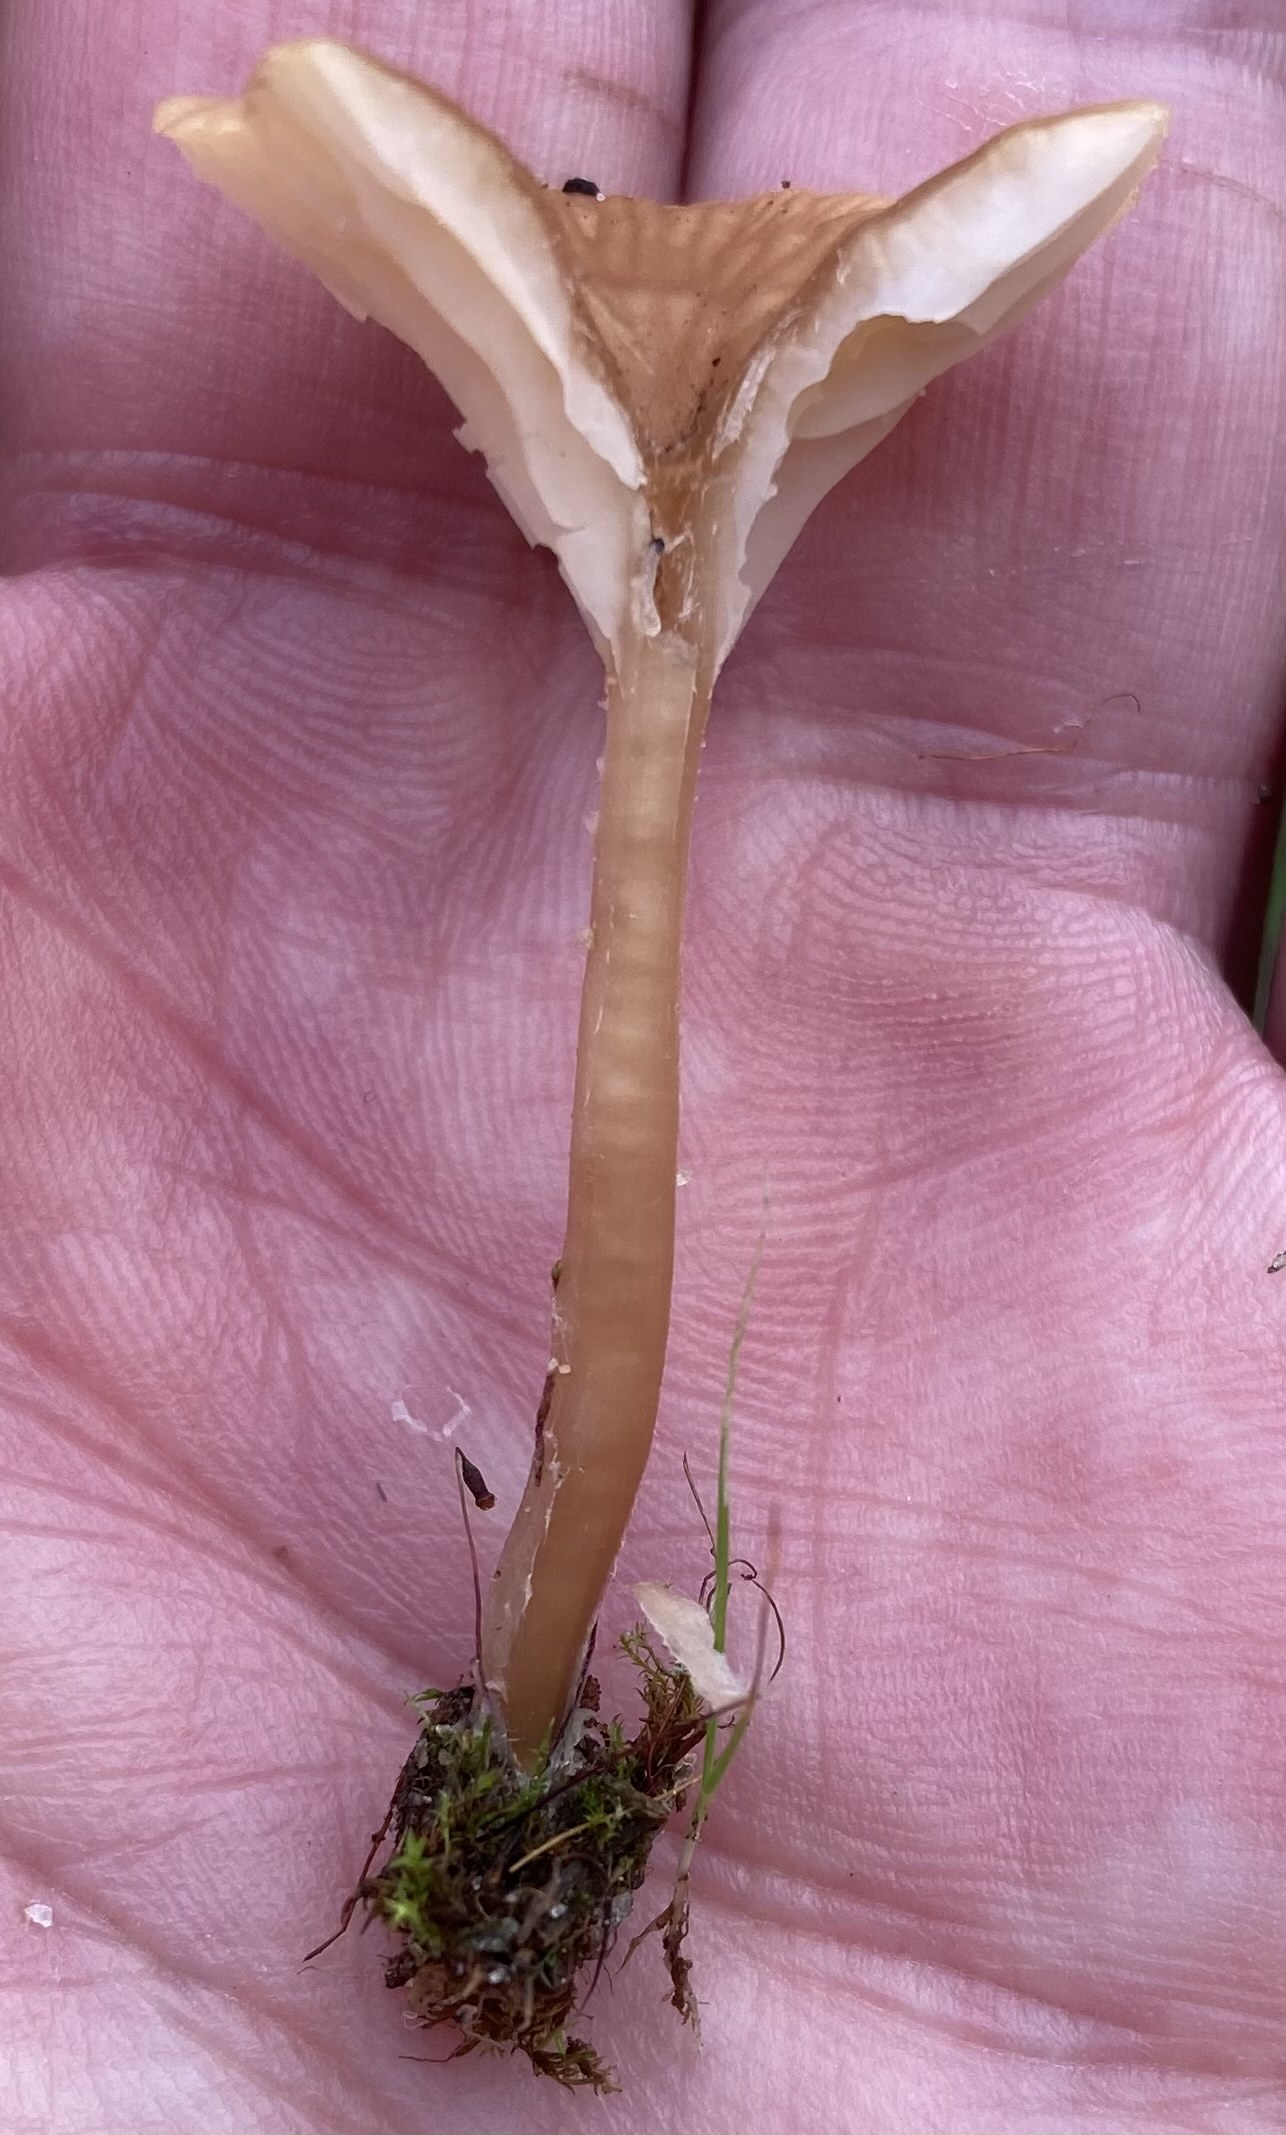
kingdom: Fungi
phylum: Basidiomycota
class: Agaricomycetes
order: Agaricales
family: Tricholomataceae
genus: Omphalina
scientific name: Omphalina pyxidata
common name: rødbrun navlehat
